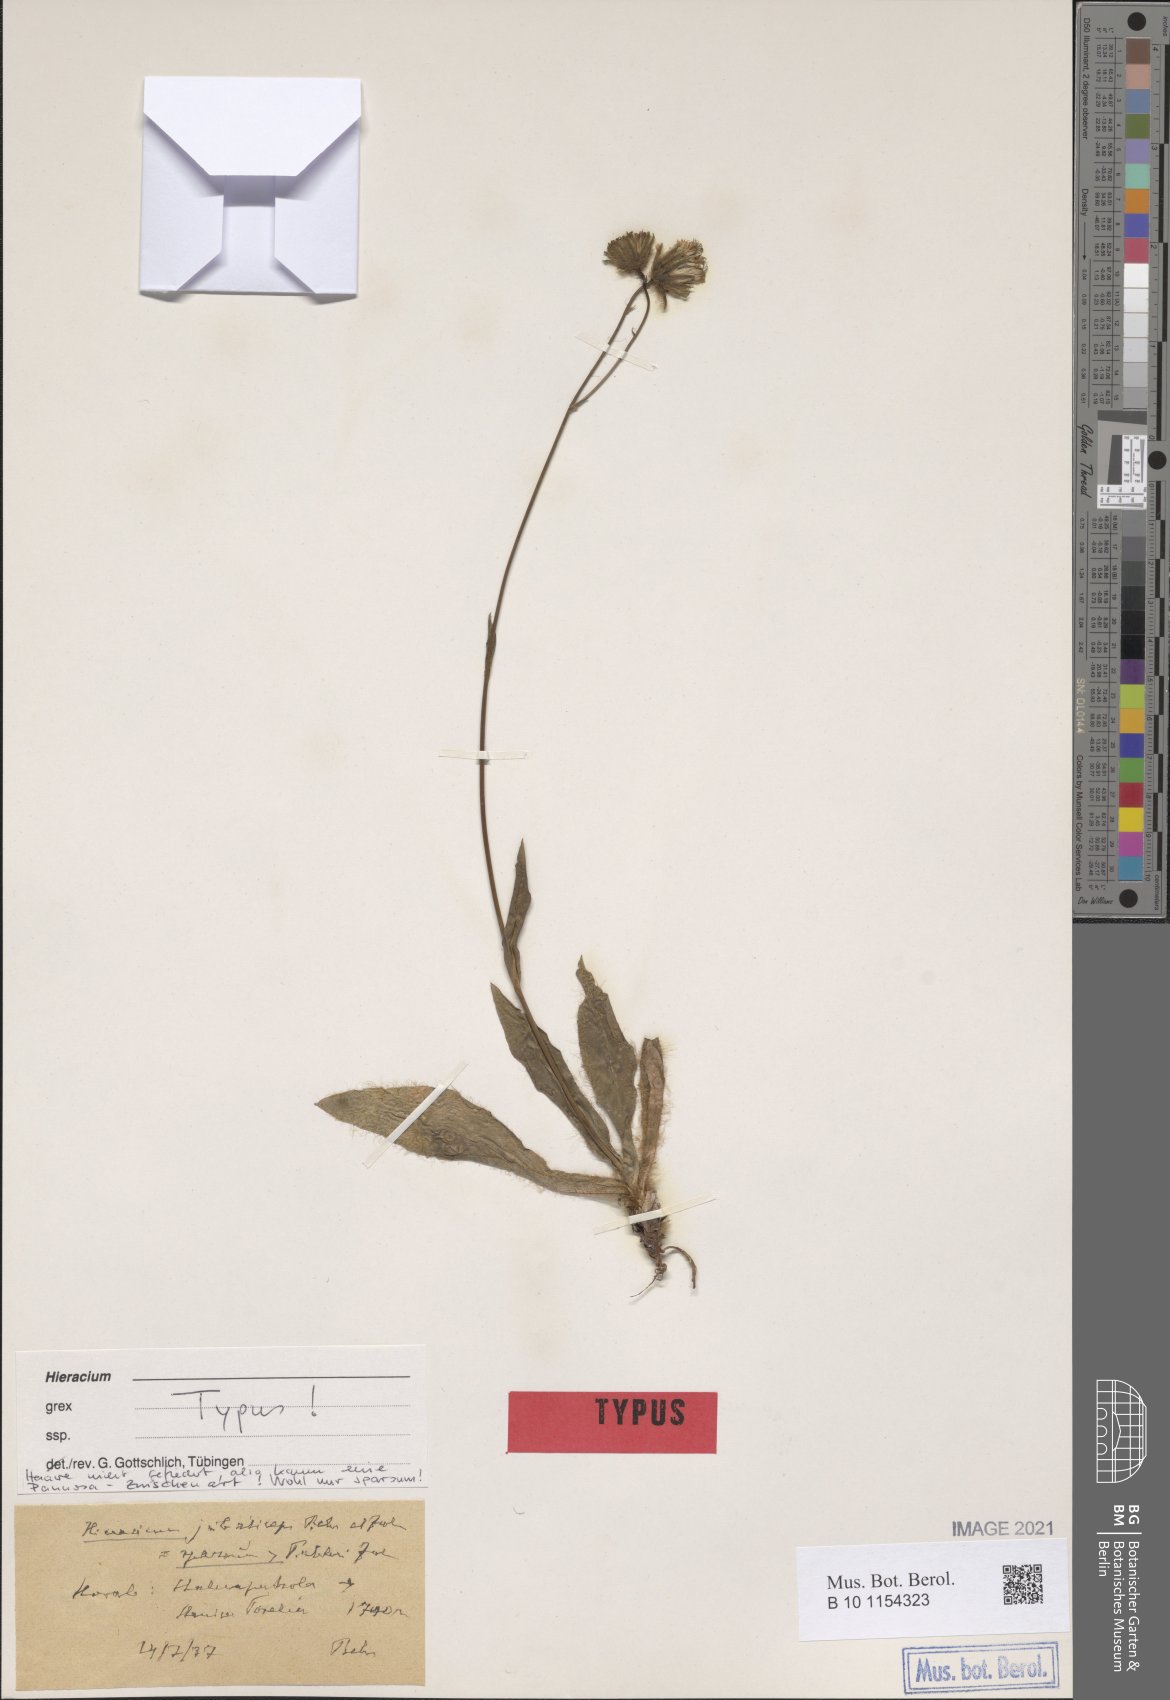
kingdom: Plantae
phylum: Tracheophyta
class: Magnoliopsida
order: Asterales
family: Asteraceae
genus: Hieracium
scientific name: Hieracium jubaticeps
